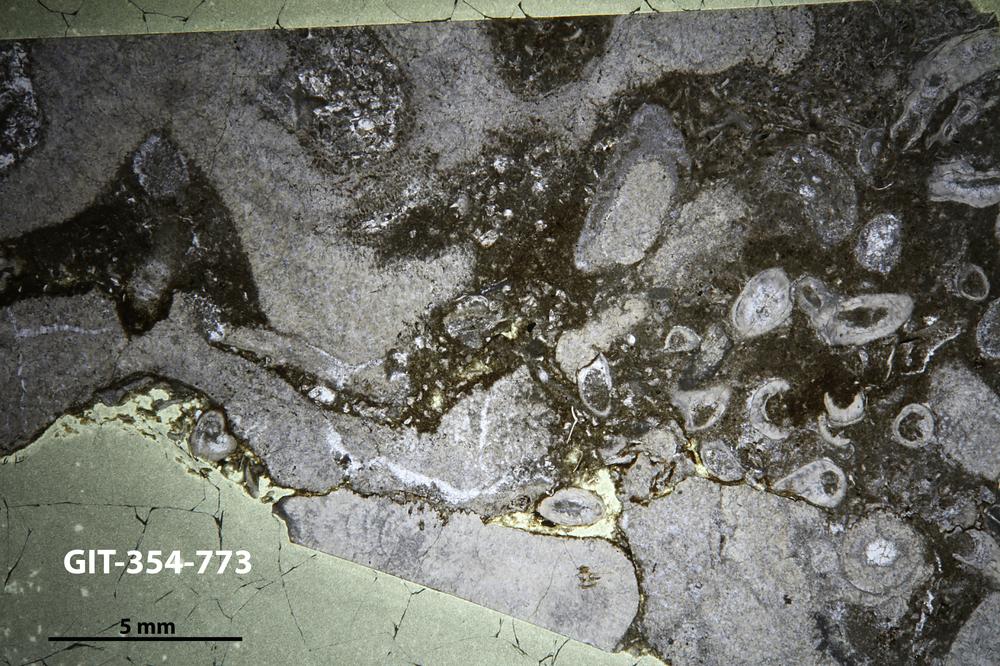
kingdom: Animalia
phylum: Nemertea
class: Hoplonemertea
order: Monostilifera
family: Amphiporidae
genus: Clathrodictyella
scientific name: Clathrodictyella
